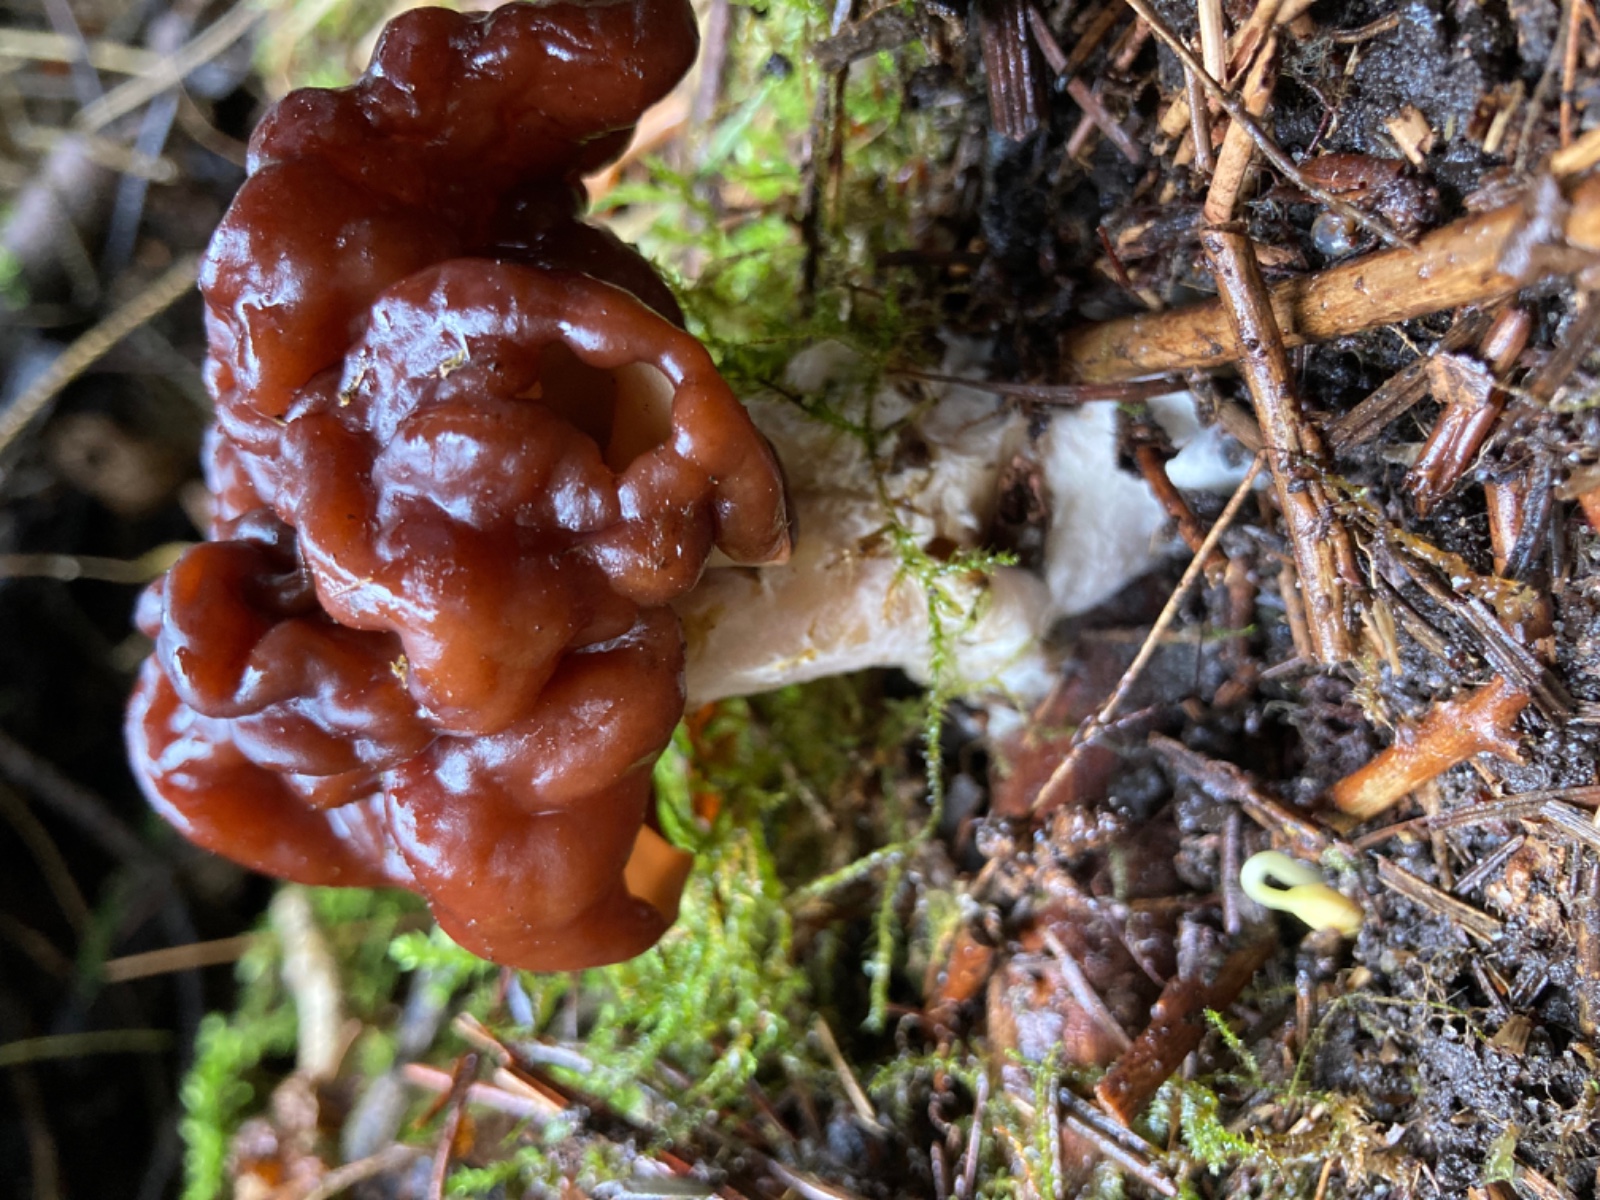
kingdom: Fungi
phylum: Ascomycota
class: Pezizomycetes
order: Pezizales
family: Discinaceae
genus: Gyromitra
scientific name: Gyromitra esculenta
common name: ægte stenmorkel
